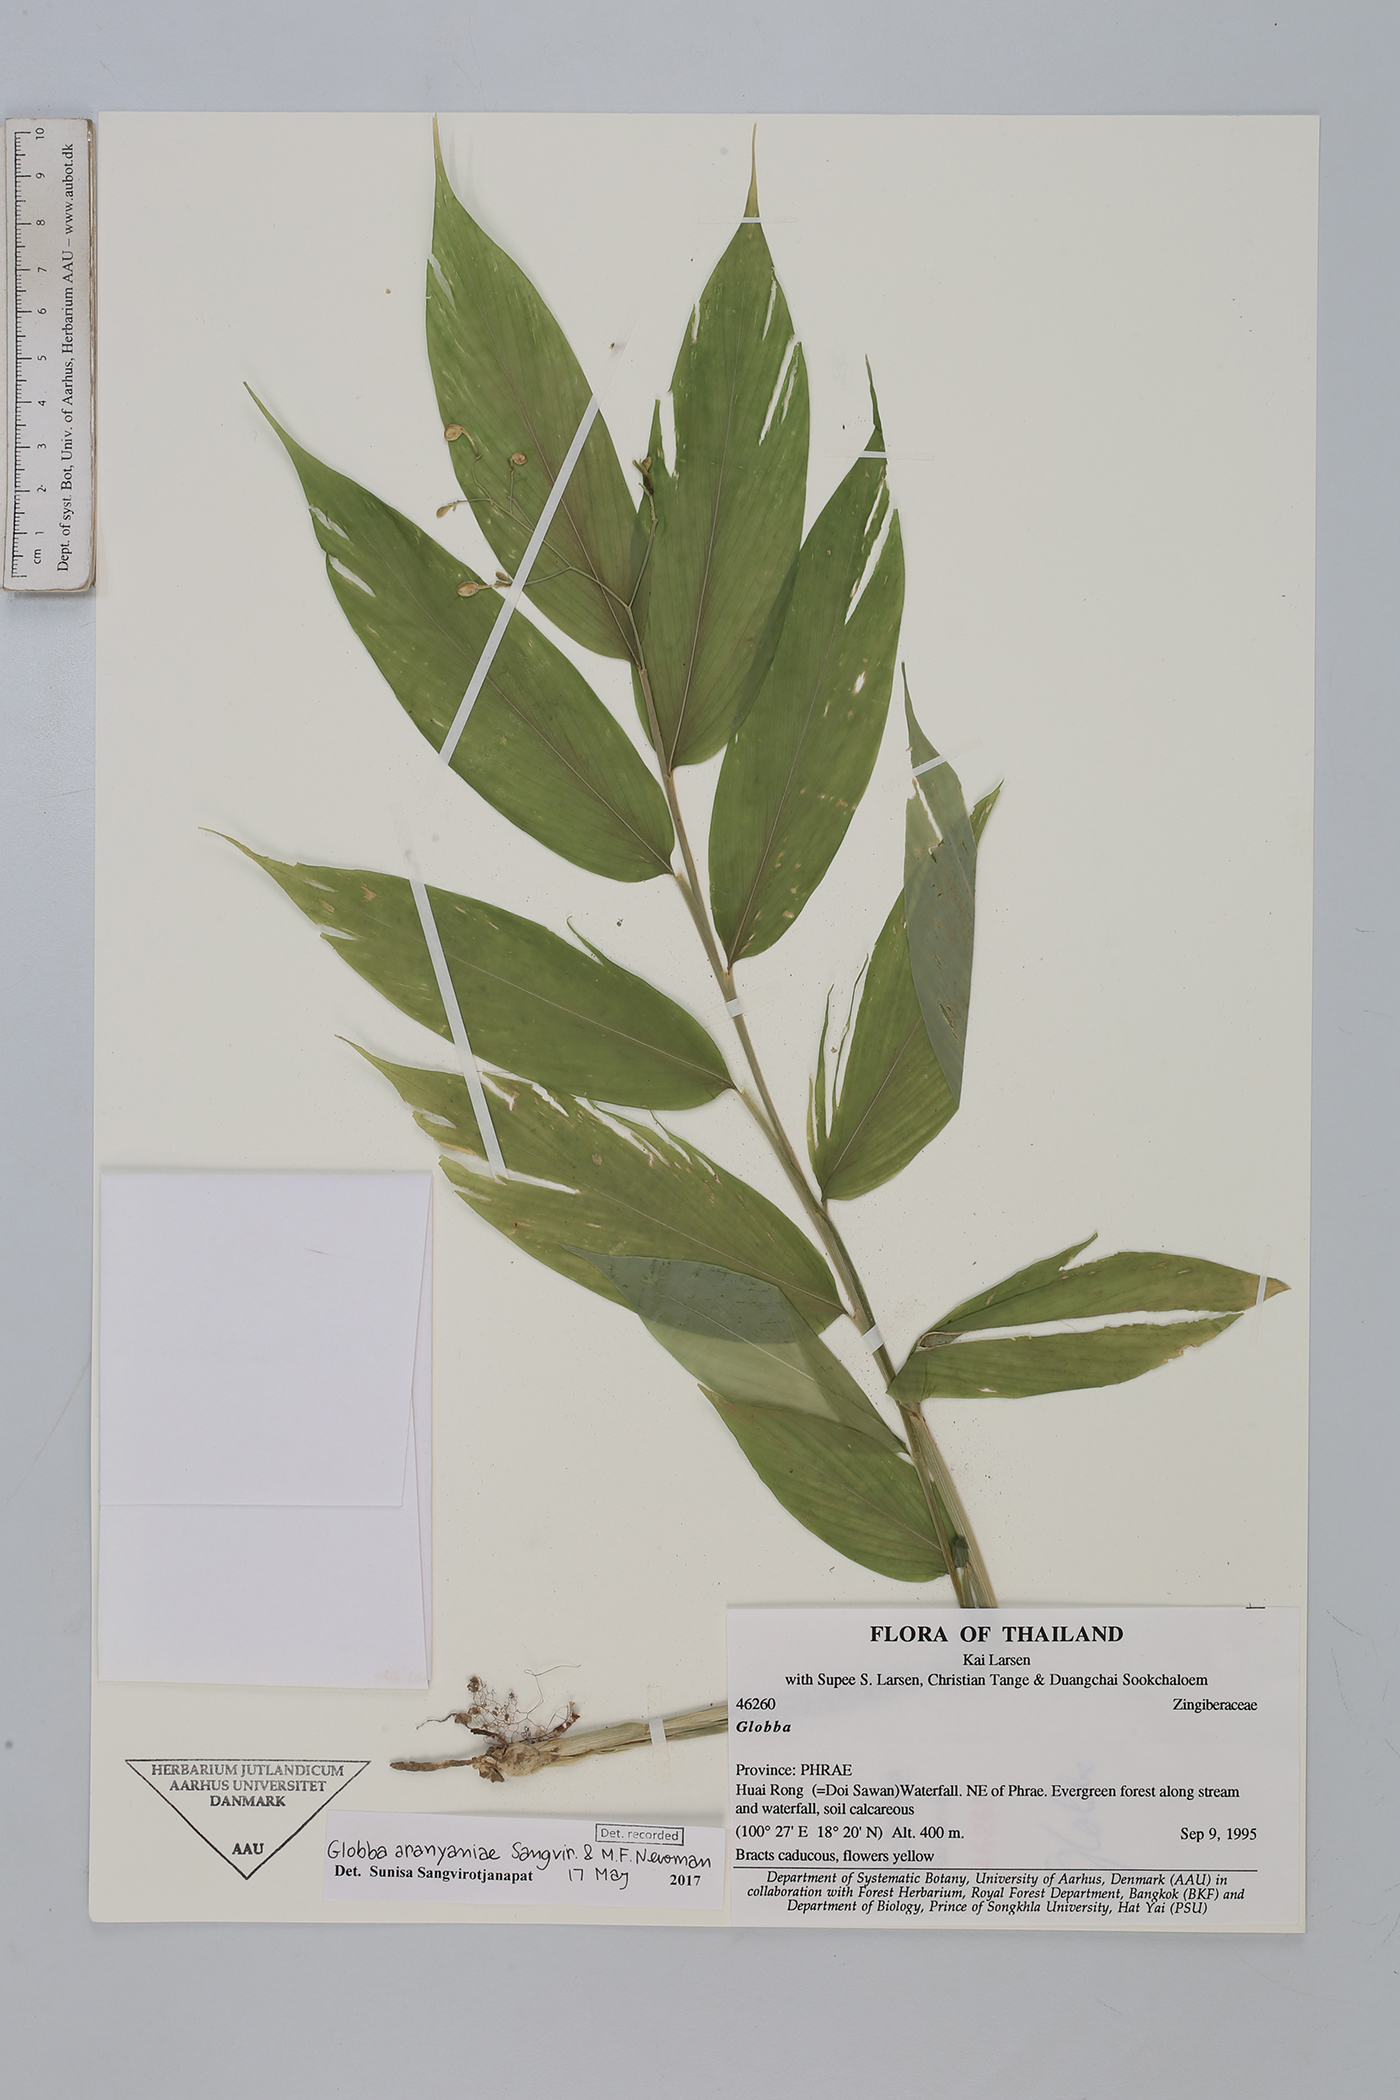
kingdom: Plantae
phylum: Tracheophyta
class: Liliopsida
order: Zingiberales
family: Zingiberaceae
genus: Globba
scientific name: Globba aranyaniae
